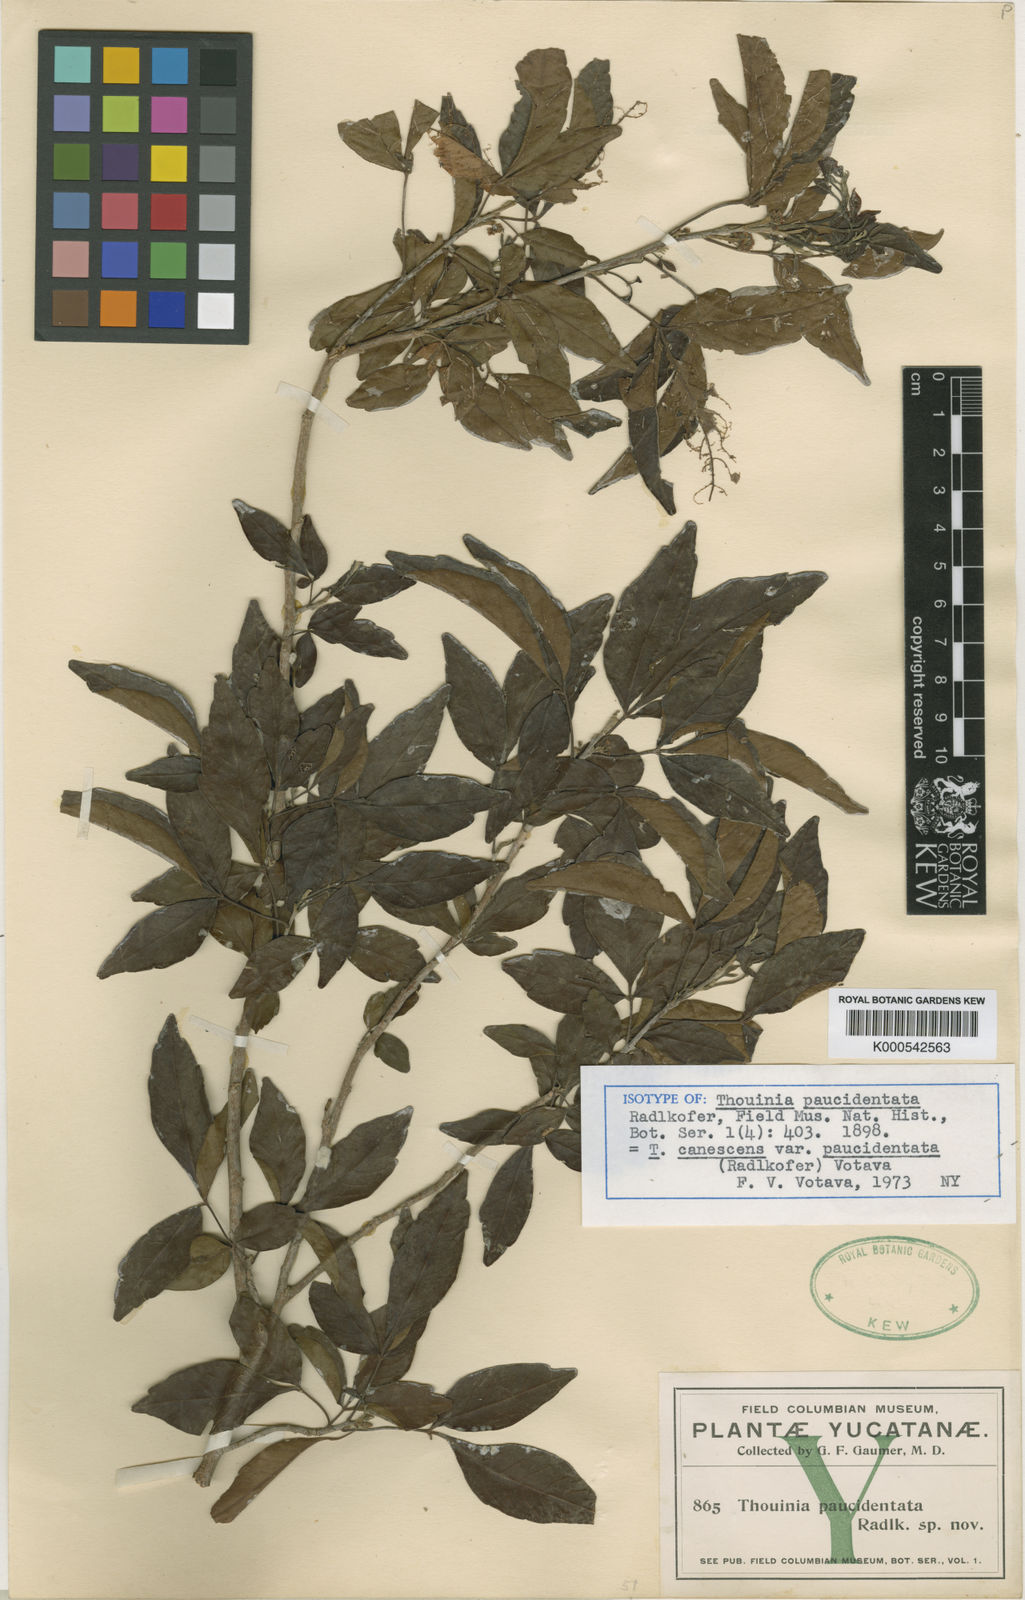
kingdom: Plantae
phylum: Tracheophyta
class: Magnoliopsida
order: Sapindales
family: Sapindaceae
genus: Thouinia
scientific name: Thouinia canescens
